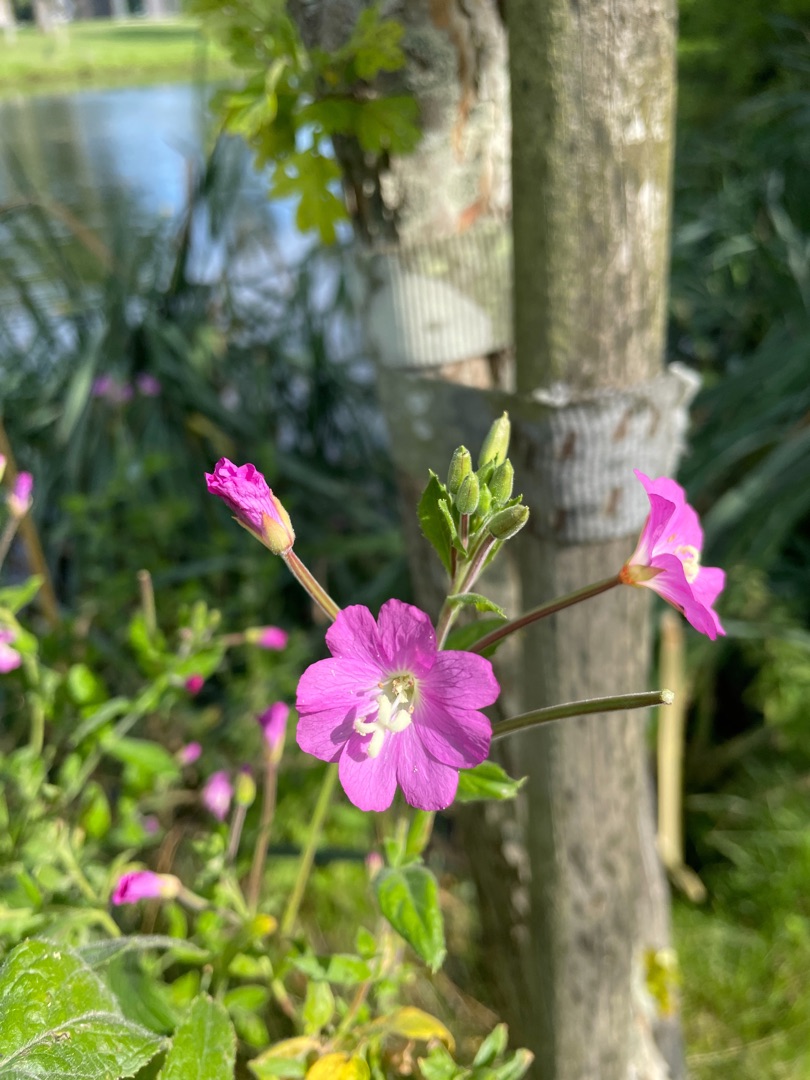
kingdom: Plantae
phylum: Tracheophyta
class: Magnoliopsida
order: Myrtales
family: Onagraceae
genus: Epilobium
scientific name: Epilobium hirsutum
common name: Lådden dueurt
